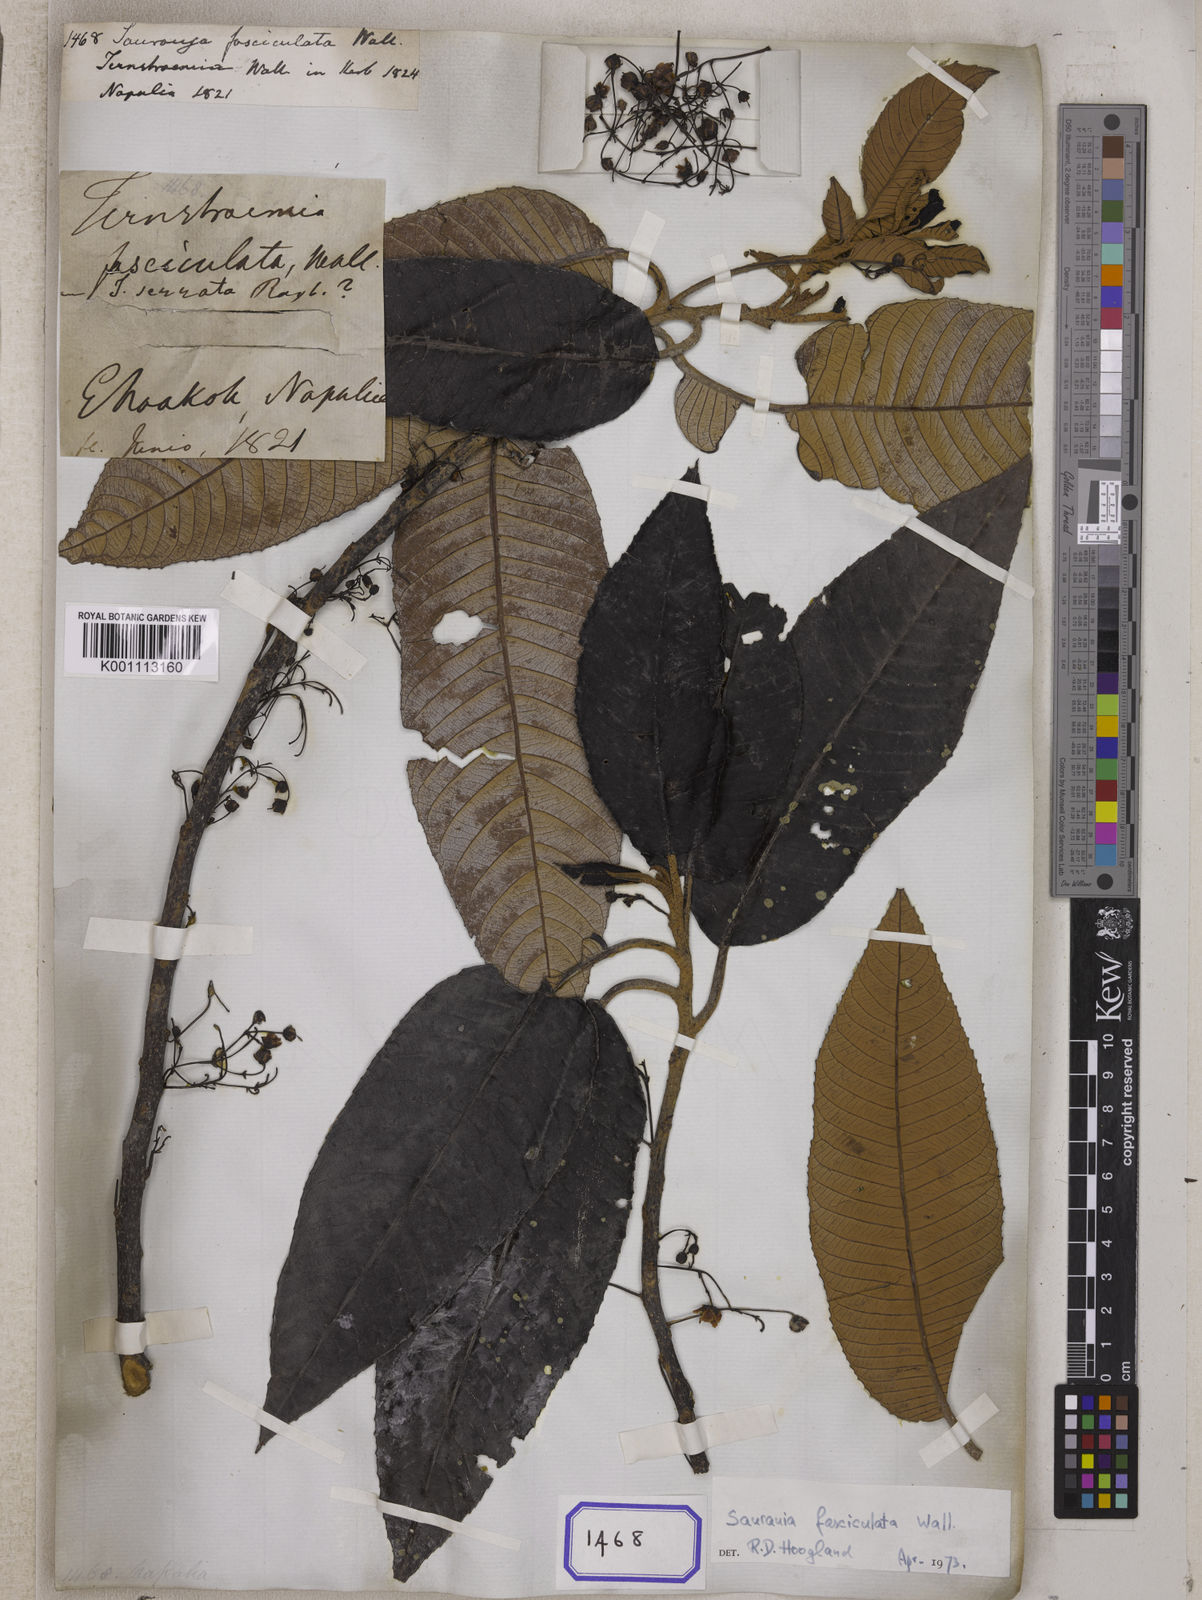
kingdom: Plantae
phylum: Tracheophyta
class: Magnoliopsida
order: Ericales
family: Actinidiaceae
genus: Saurauia
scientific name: Saurauia fasciculata
